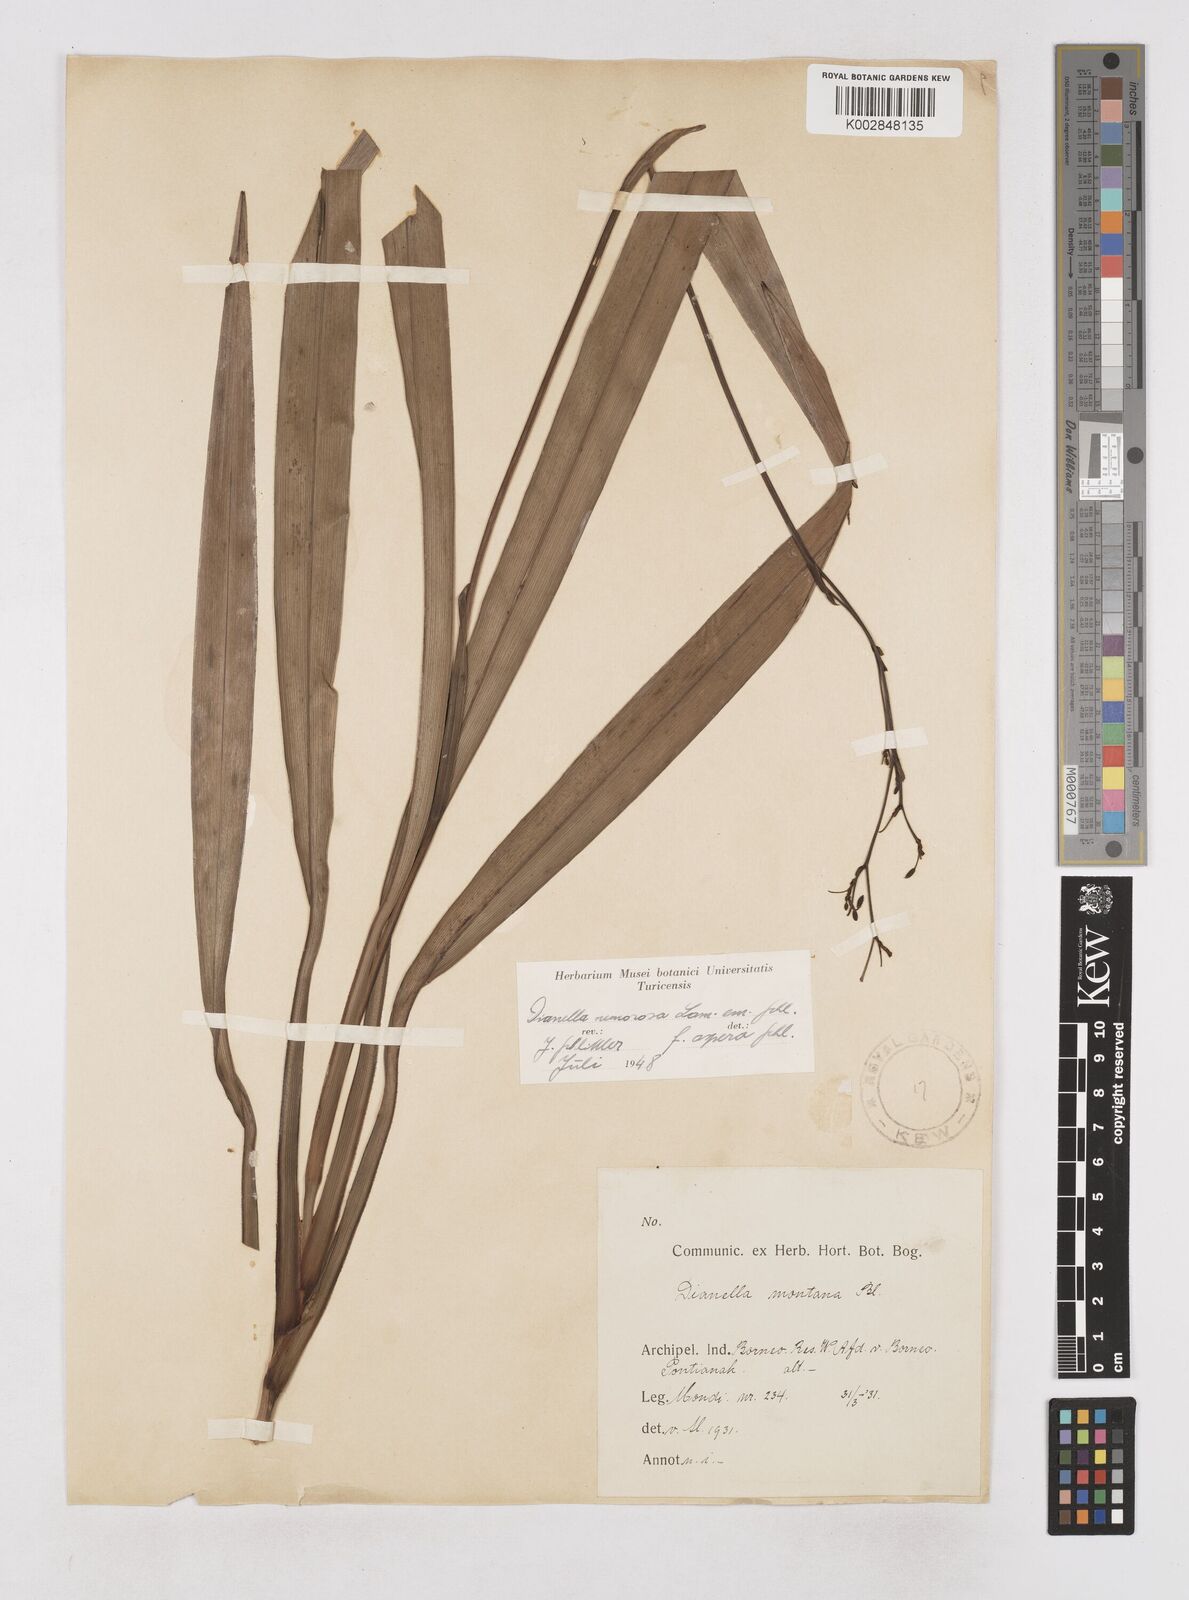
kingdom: Plantae
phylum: Tracheophyta
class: Liliopsida
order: Asparagales
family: Asphodelaceae
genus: Dianella
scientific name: Dianella ensifolia
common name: New zealand lilyplant
